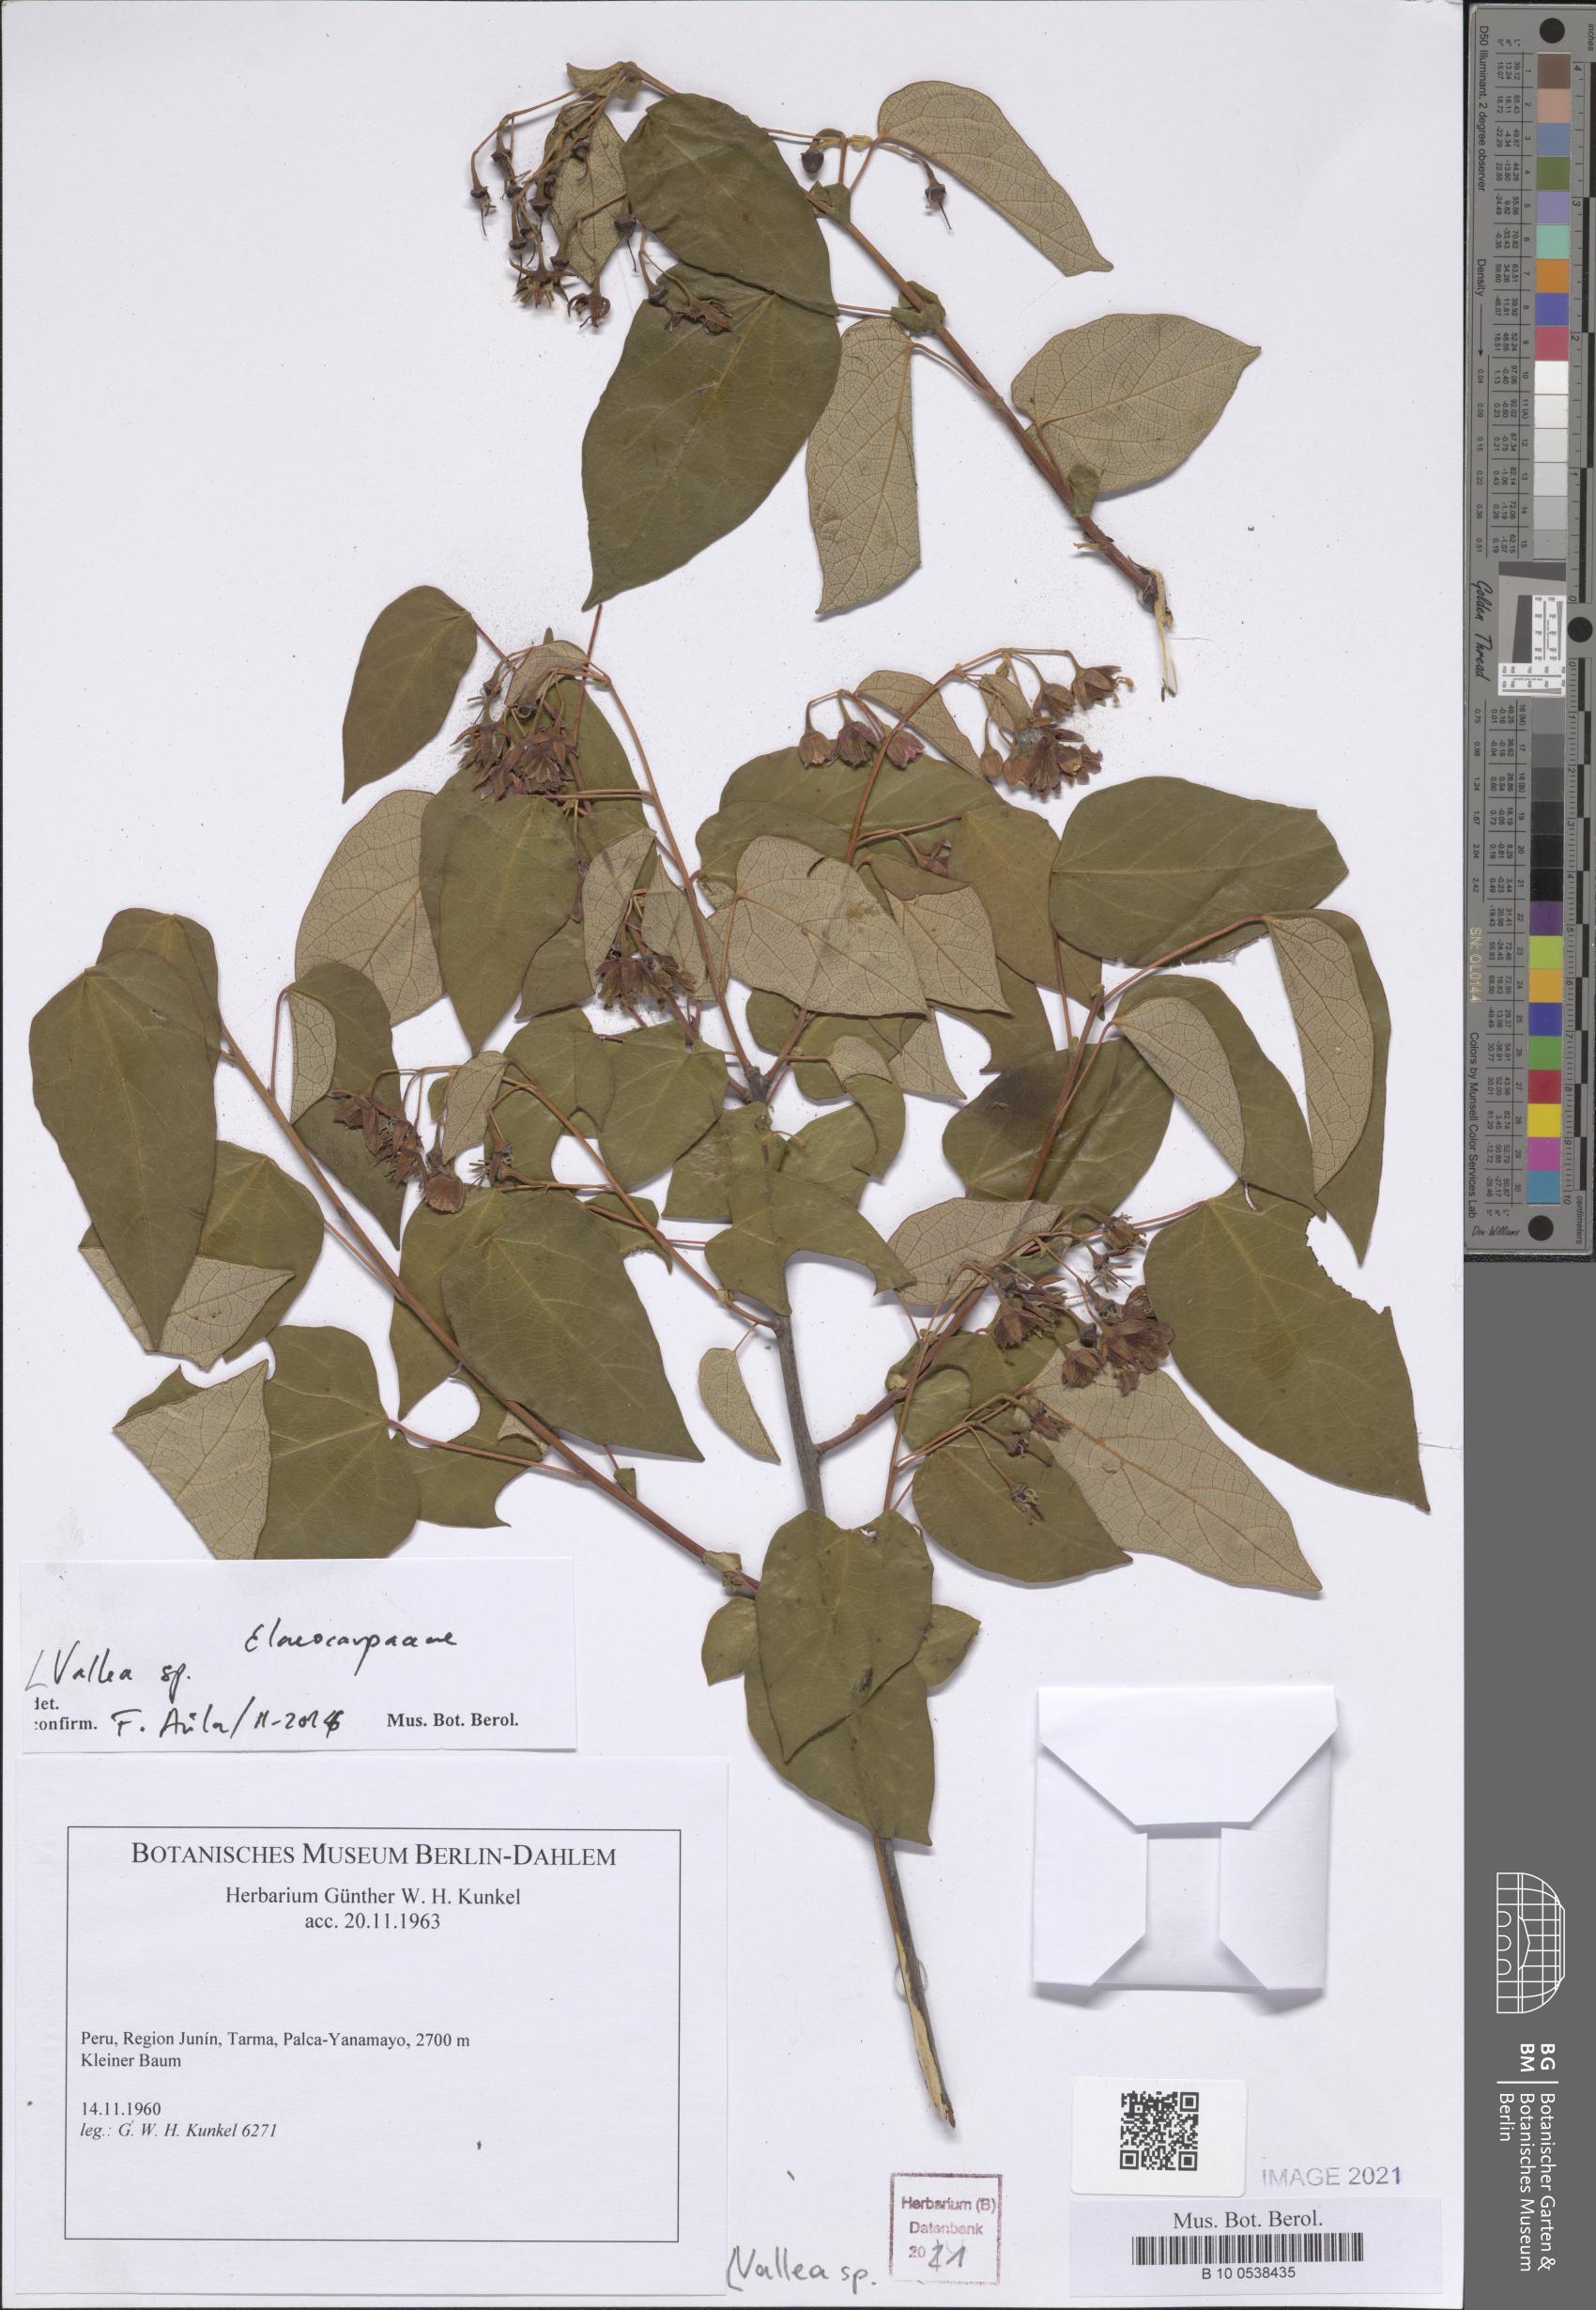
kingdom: Plantae
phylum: Tracheophyta
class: Magnoliopsida
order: Asterales
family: Asteraceae
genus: Senecio
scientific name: Senecio herrerae
